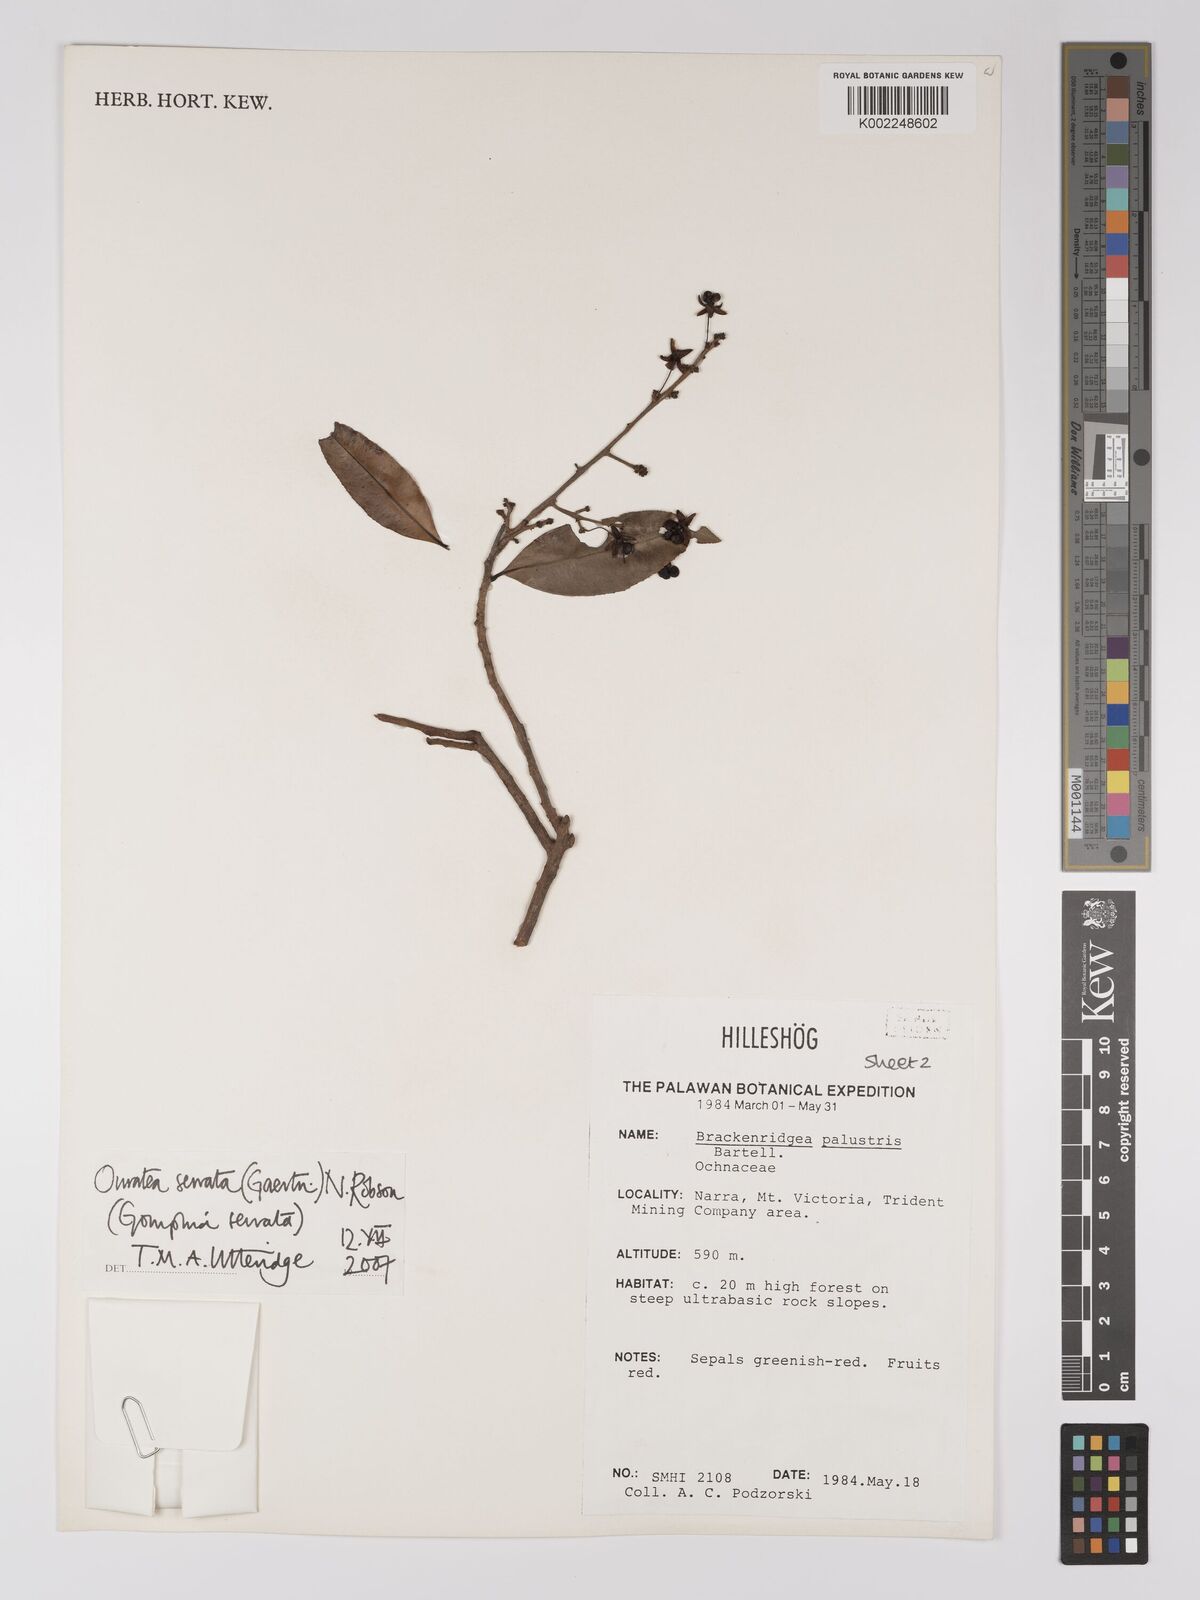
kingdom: Plantae
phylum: Tracheophyta
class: Magnoliopsida
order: Malpighiales
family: Ochnaceae
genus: Gomphia
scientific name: Gomphia serrata
